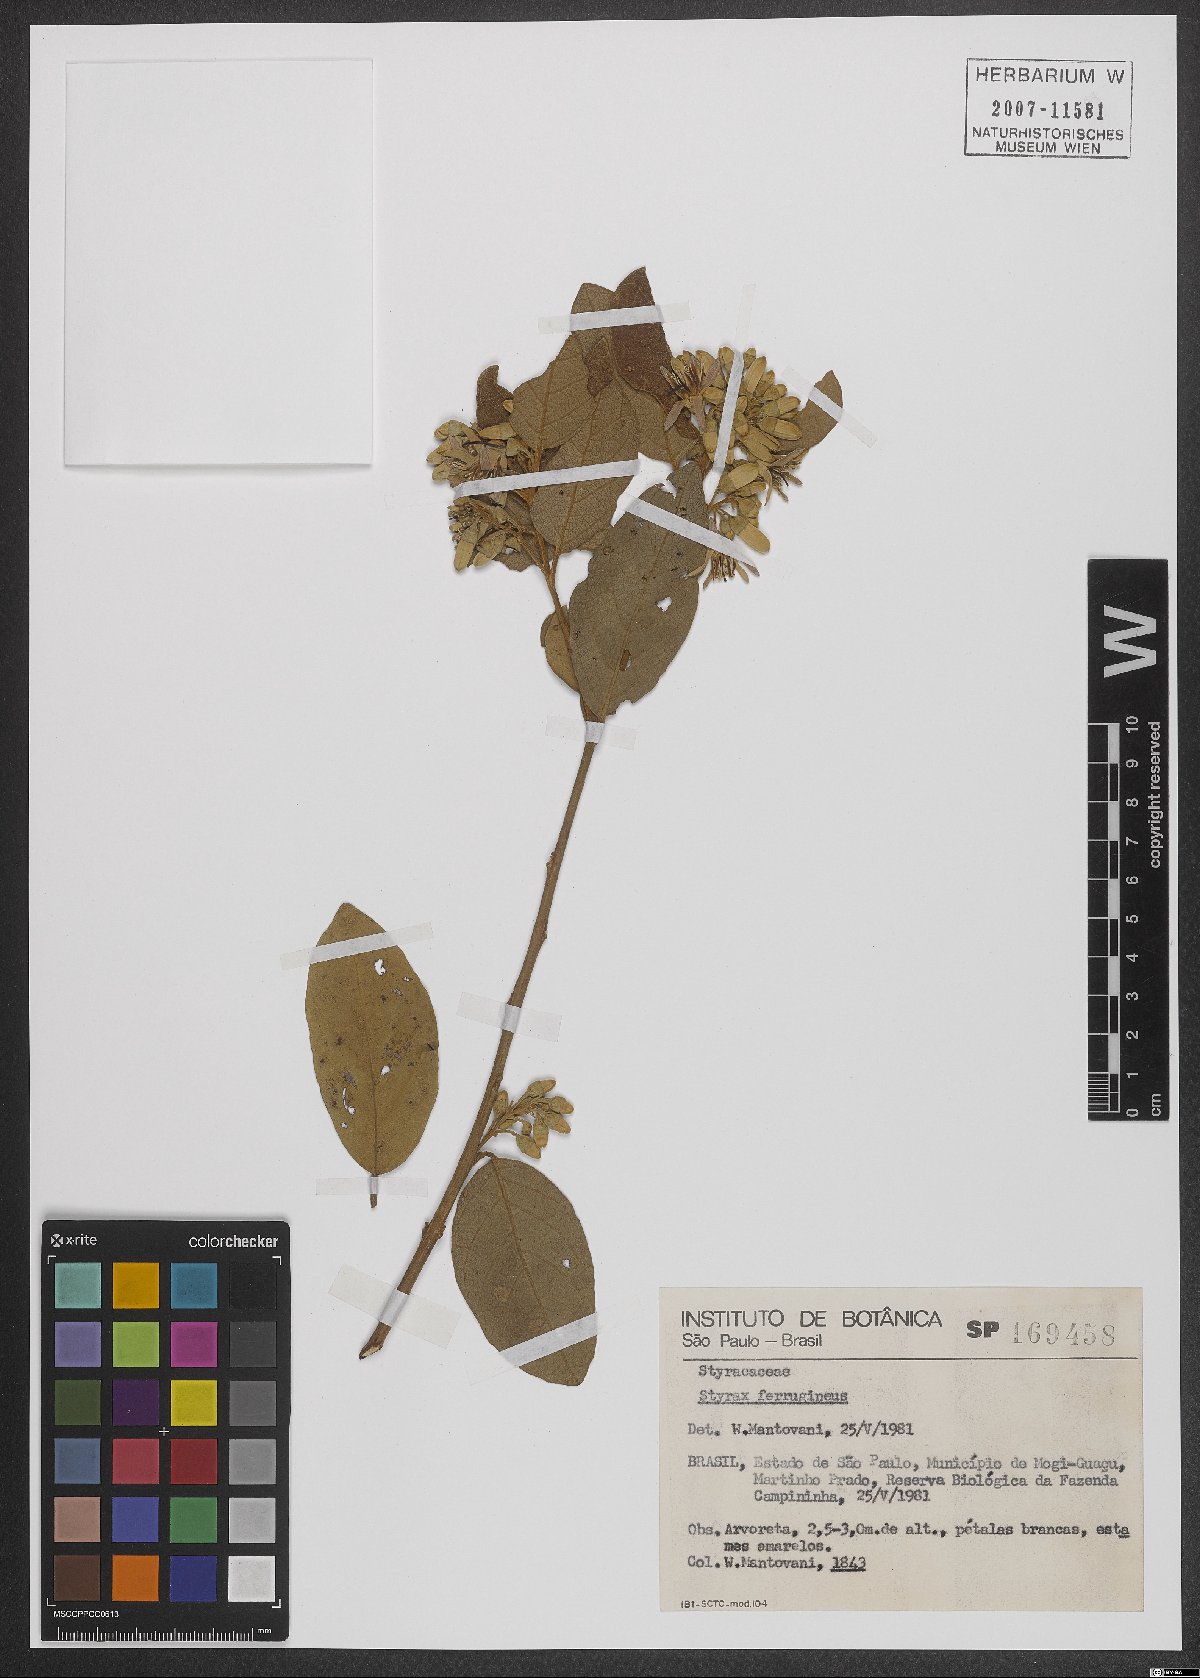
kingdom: Plantae
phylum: Tracheophyta
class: Magnoliopsida
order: Ericales
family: Styracaceae
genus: Styrax
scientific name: Styrax ferrugineus
